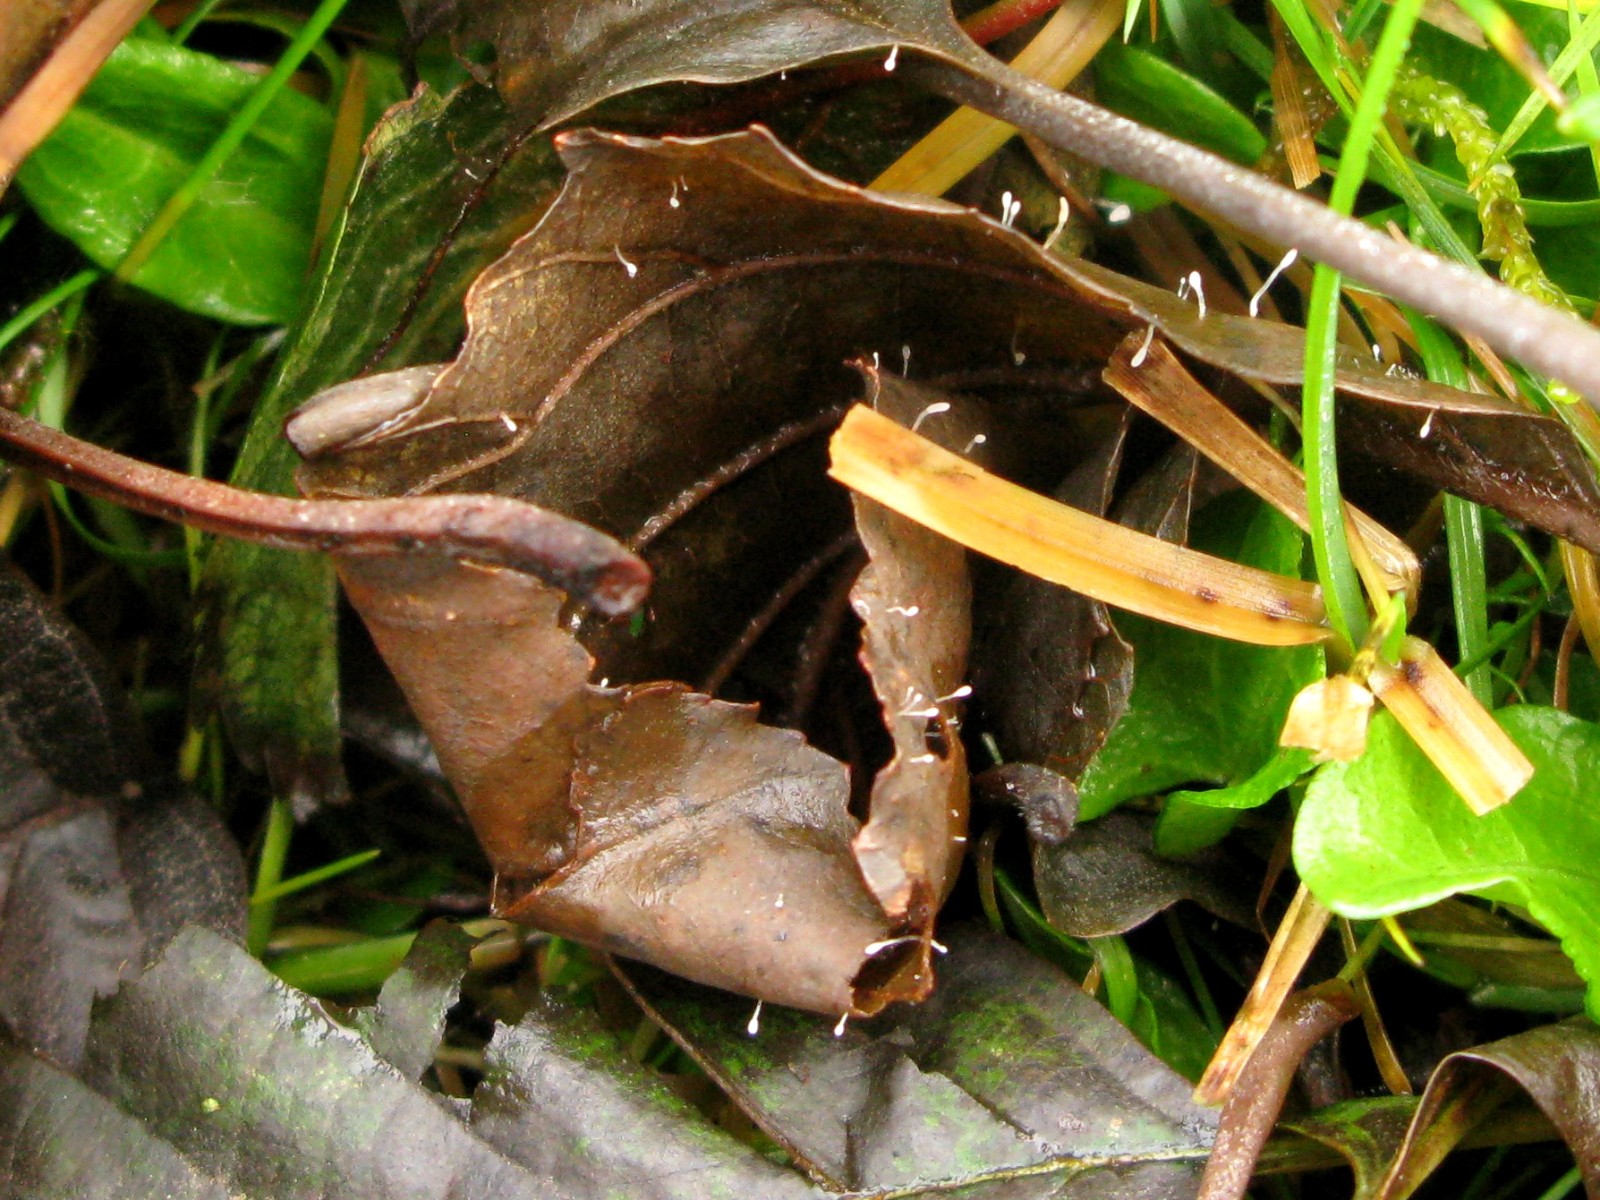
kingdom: Fungi
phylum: Basidiomycota
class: Agaricomycetes
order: Agaricales
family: Typhulaceae
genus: Typhula
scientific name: Typhula setipes
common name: liden trådkølle
